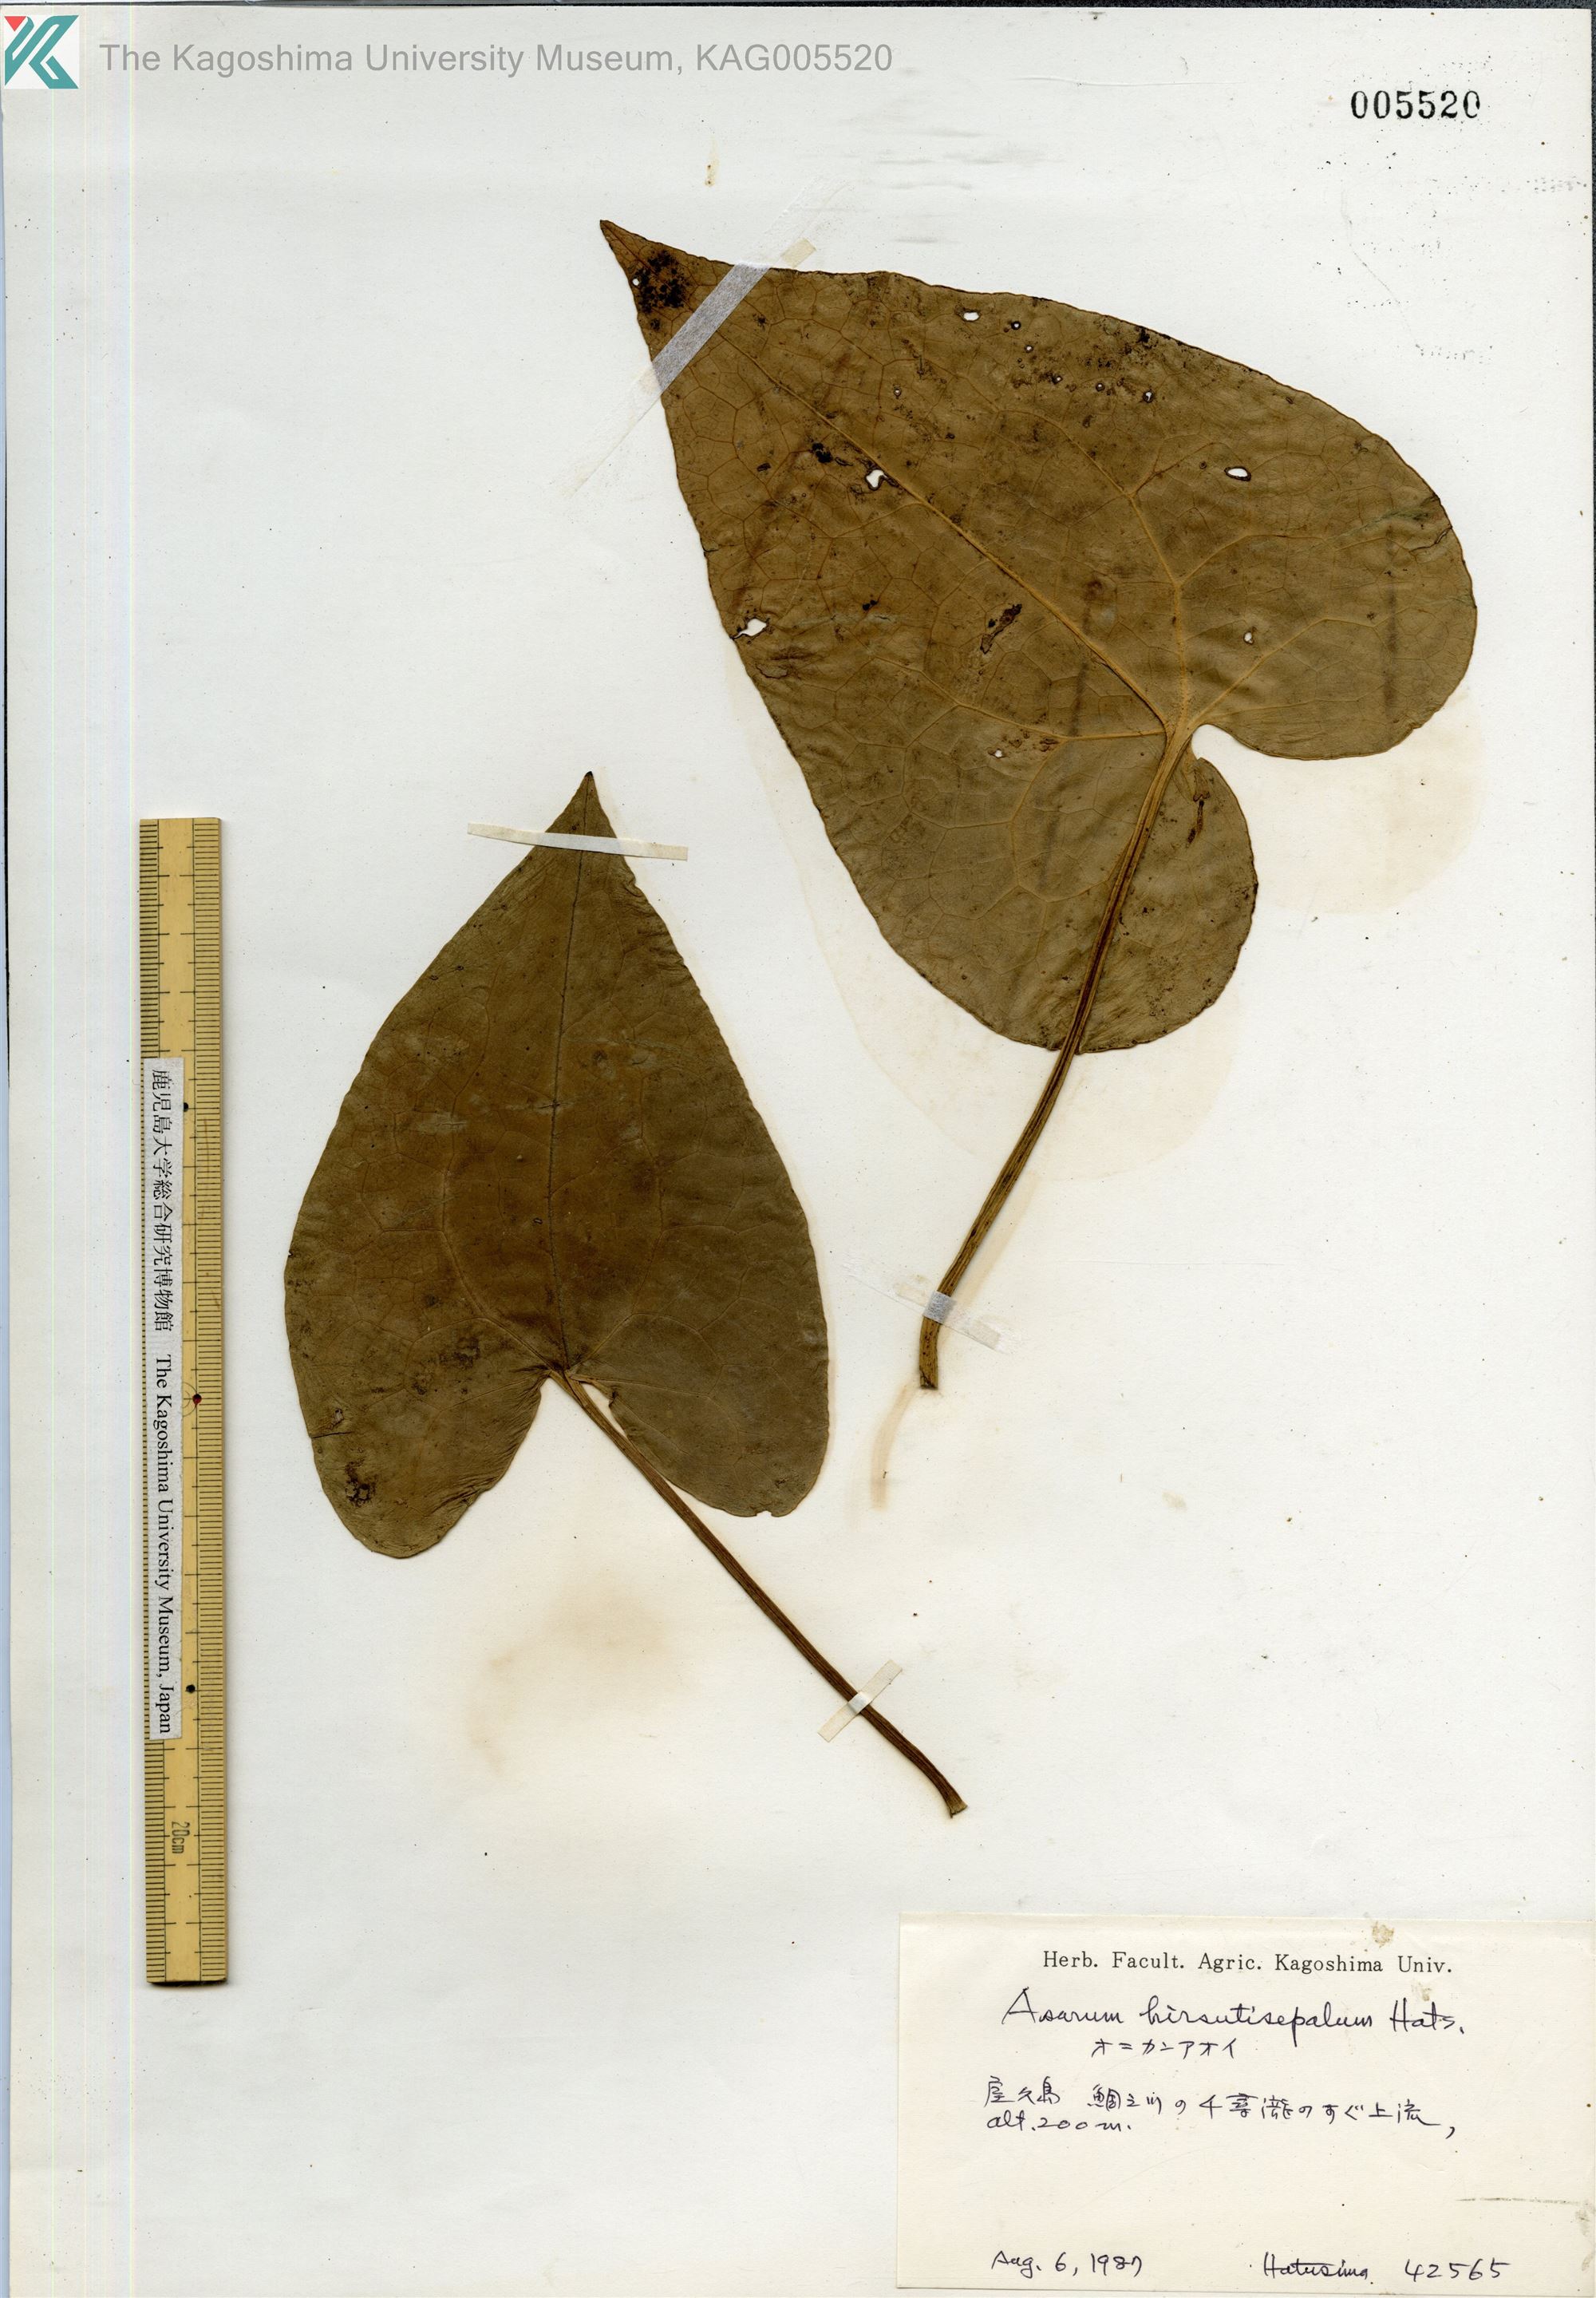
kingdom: Plantae
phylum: Tracheophyta
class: Magnoliopsida
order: Piperales
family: Aristolochiaceae
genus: Asarum
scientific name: Asarum yakusimense
